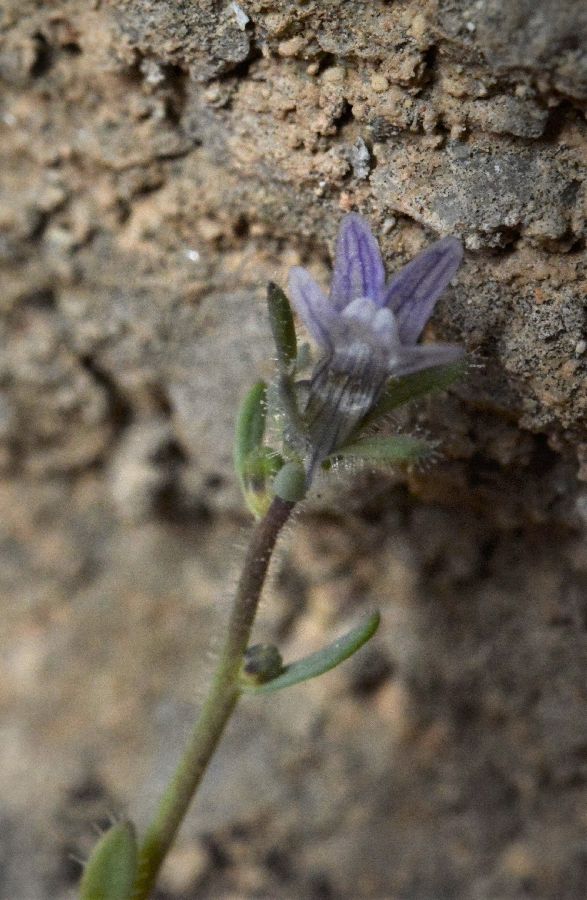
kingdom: Plantae
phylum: Tracheophyta
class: Magnoliopsida
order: Lamiales
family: Plantaginaceae
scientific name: Plantaginaceae
